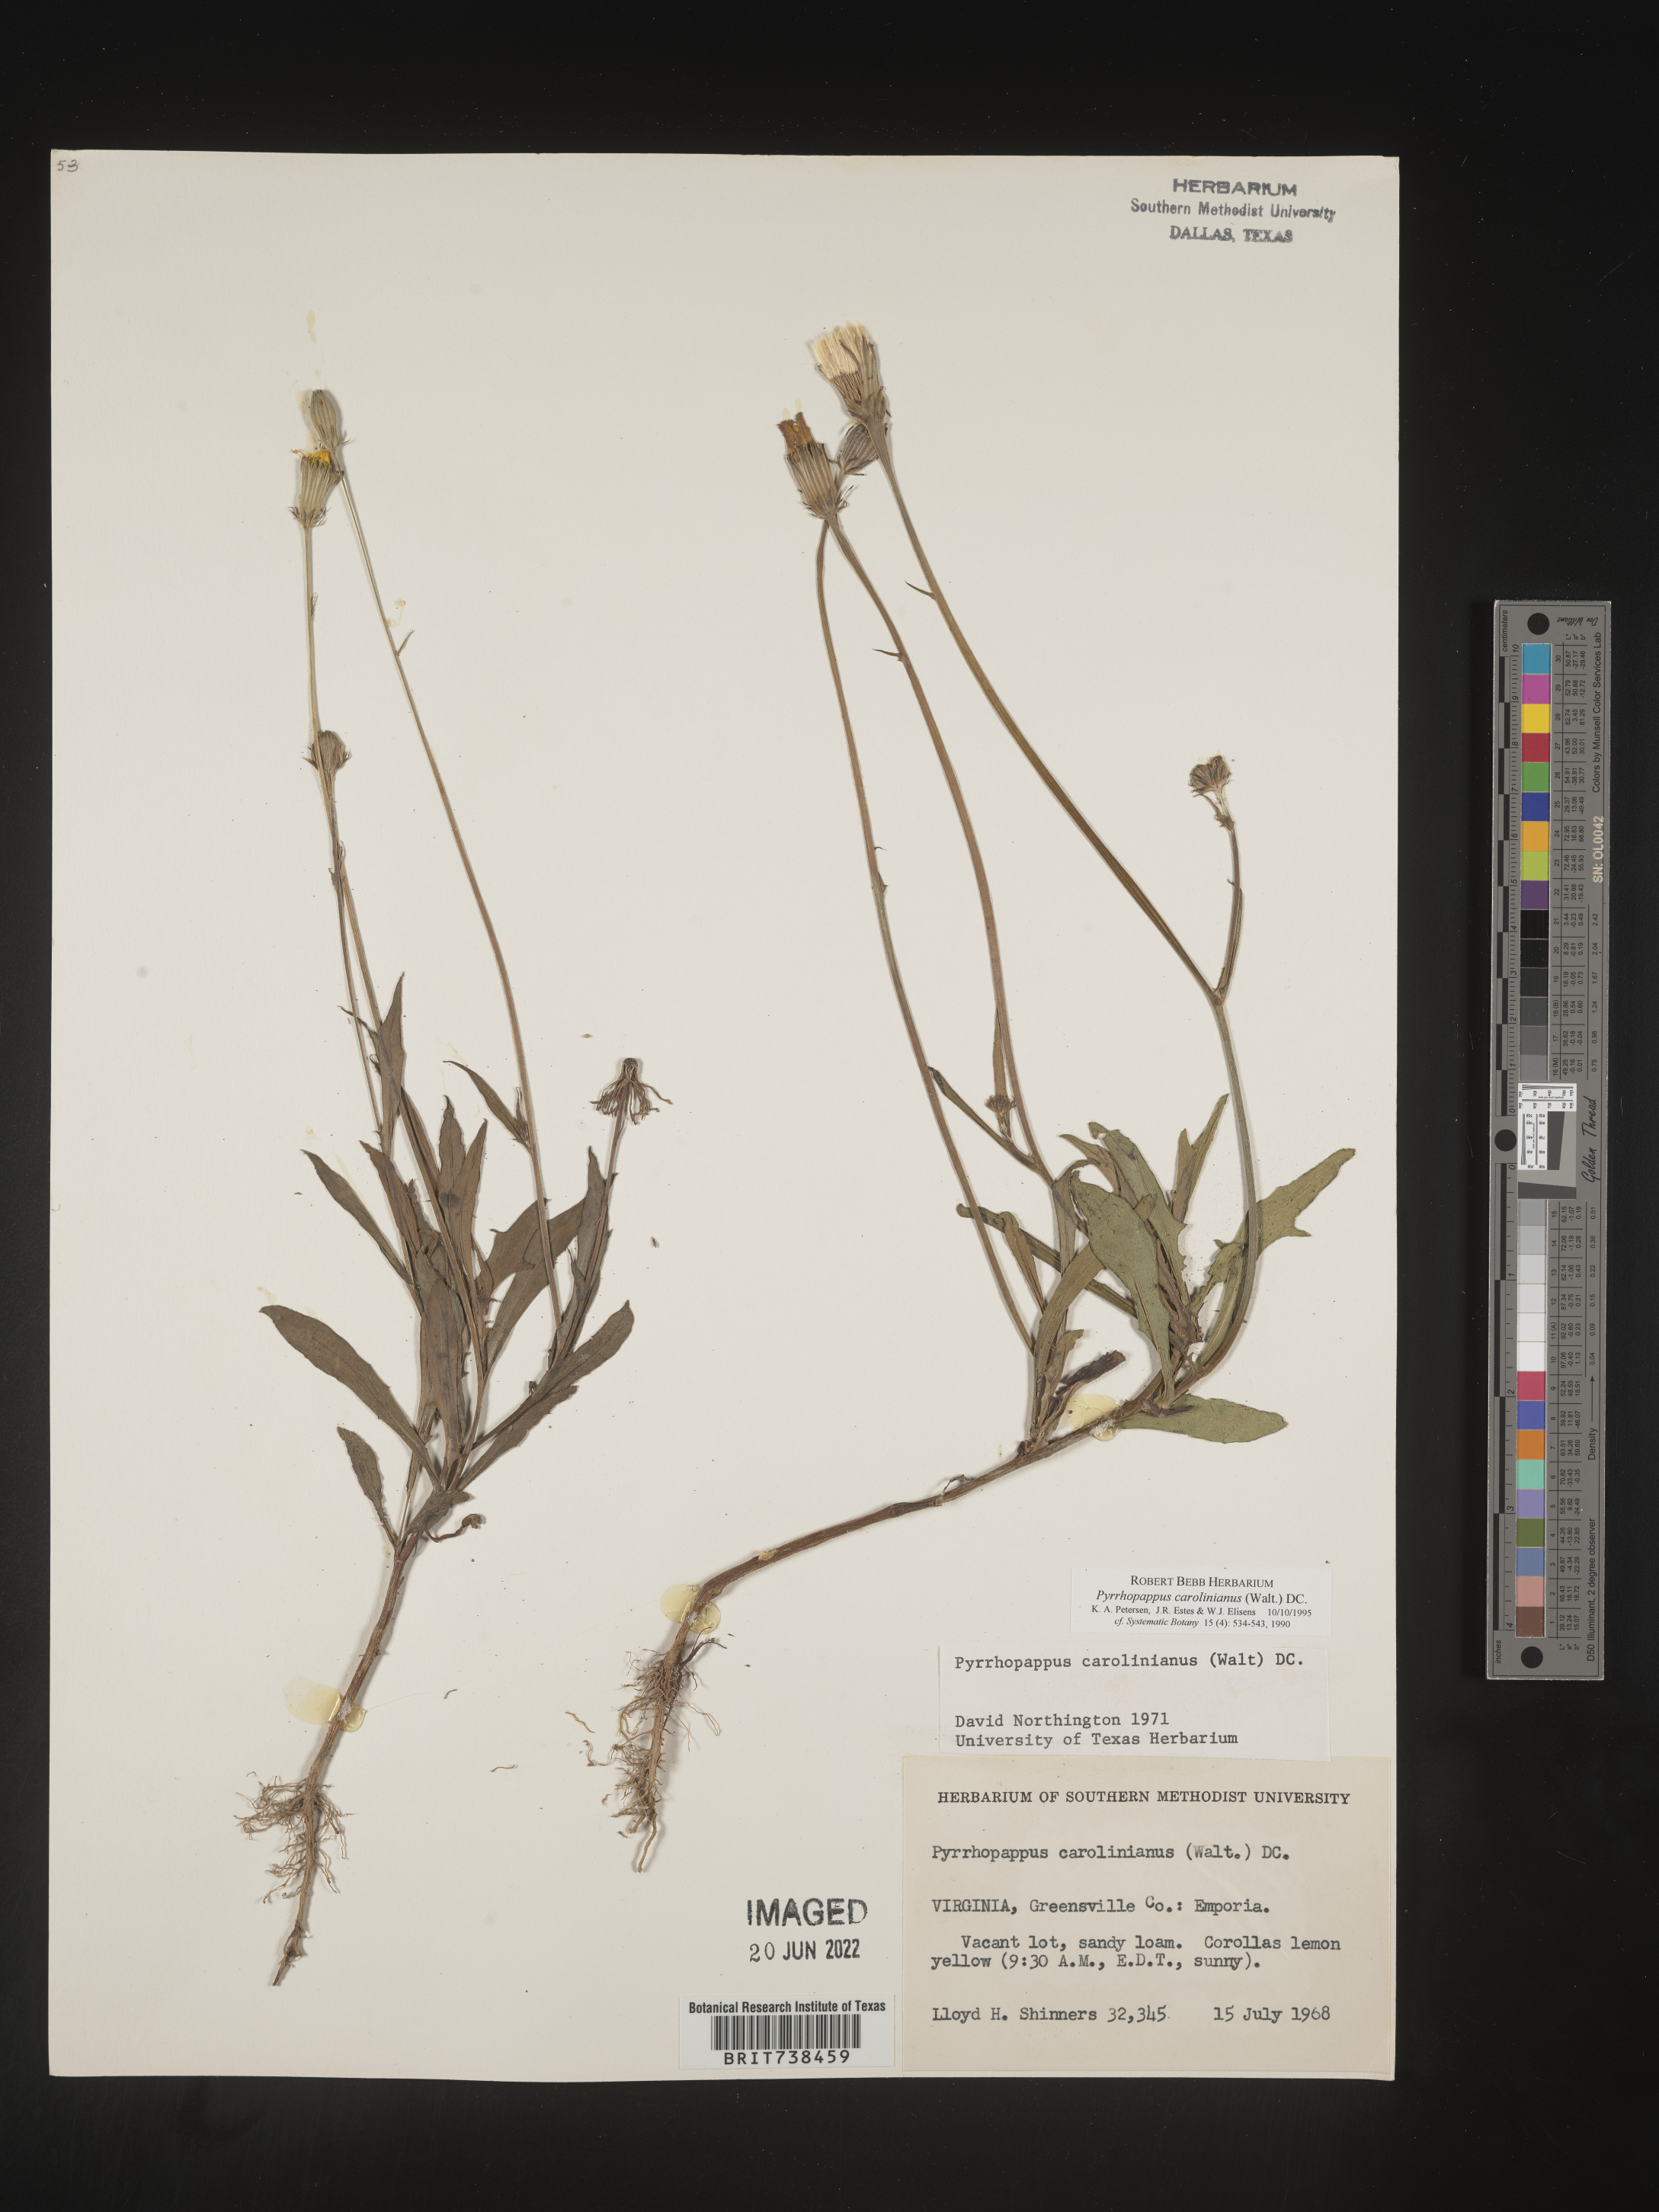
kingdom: Plantae
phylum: Tracheophyta
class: Magnoliopsida
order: Asterales
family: Asteraceae
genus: Pyrrhopappus
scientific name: Pyrrhopappus carolinianus
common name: Carolina desert-chicory
